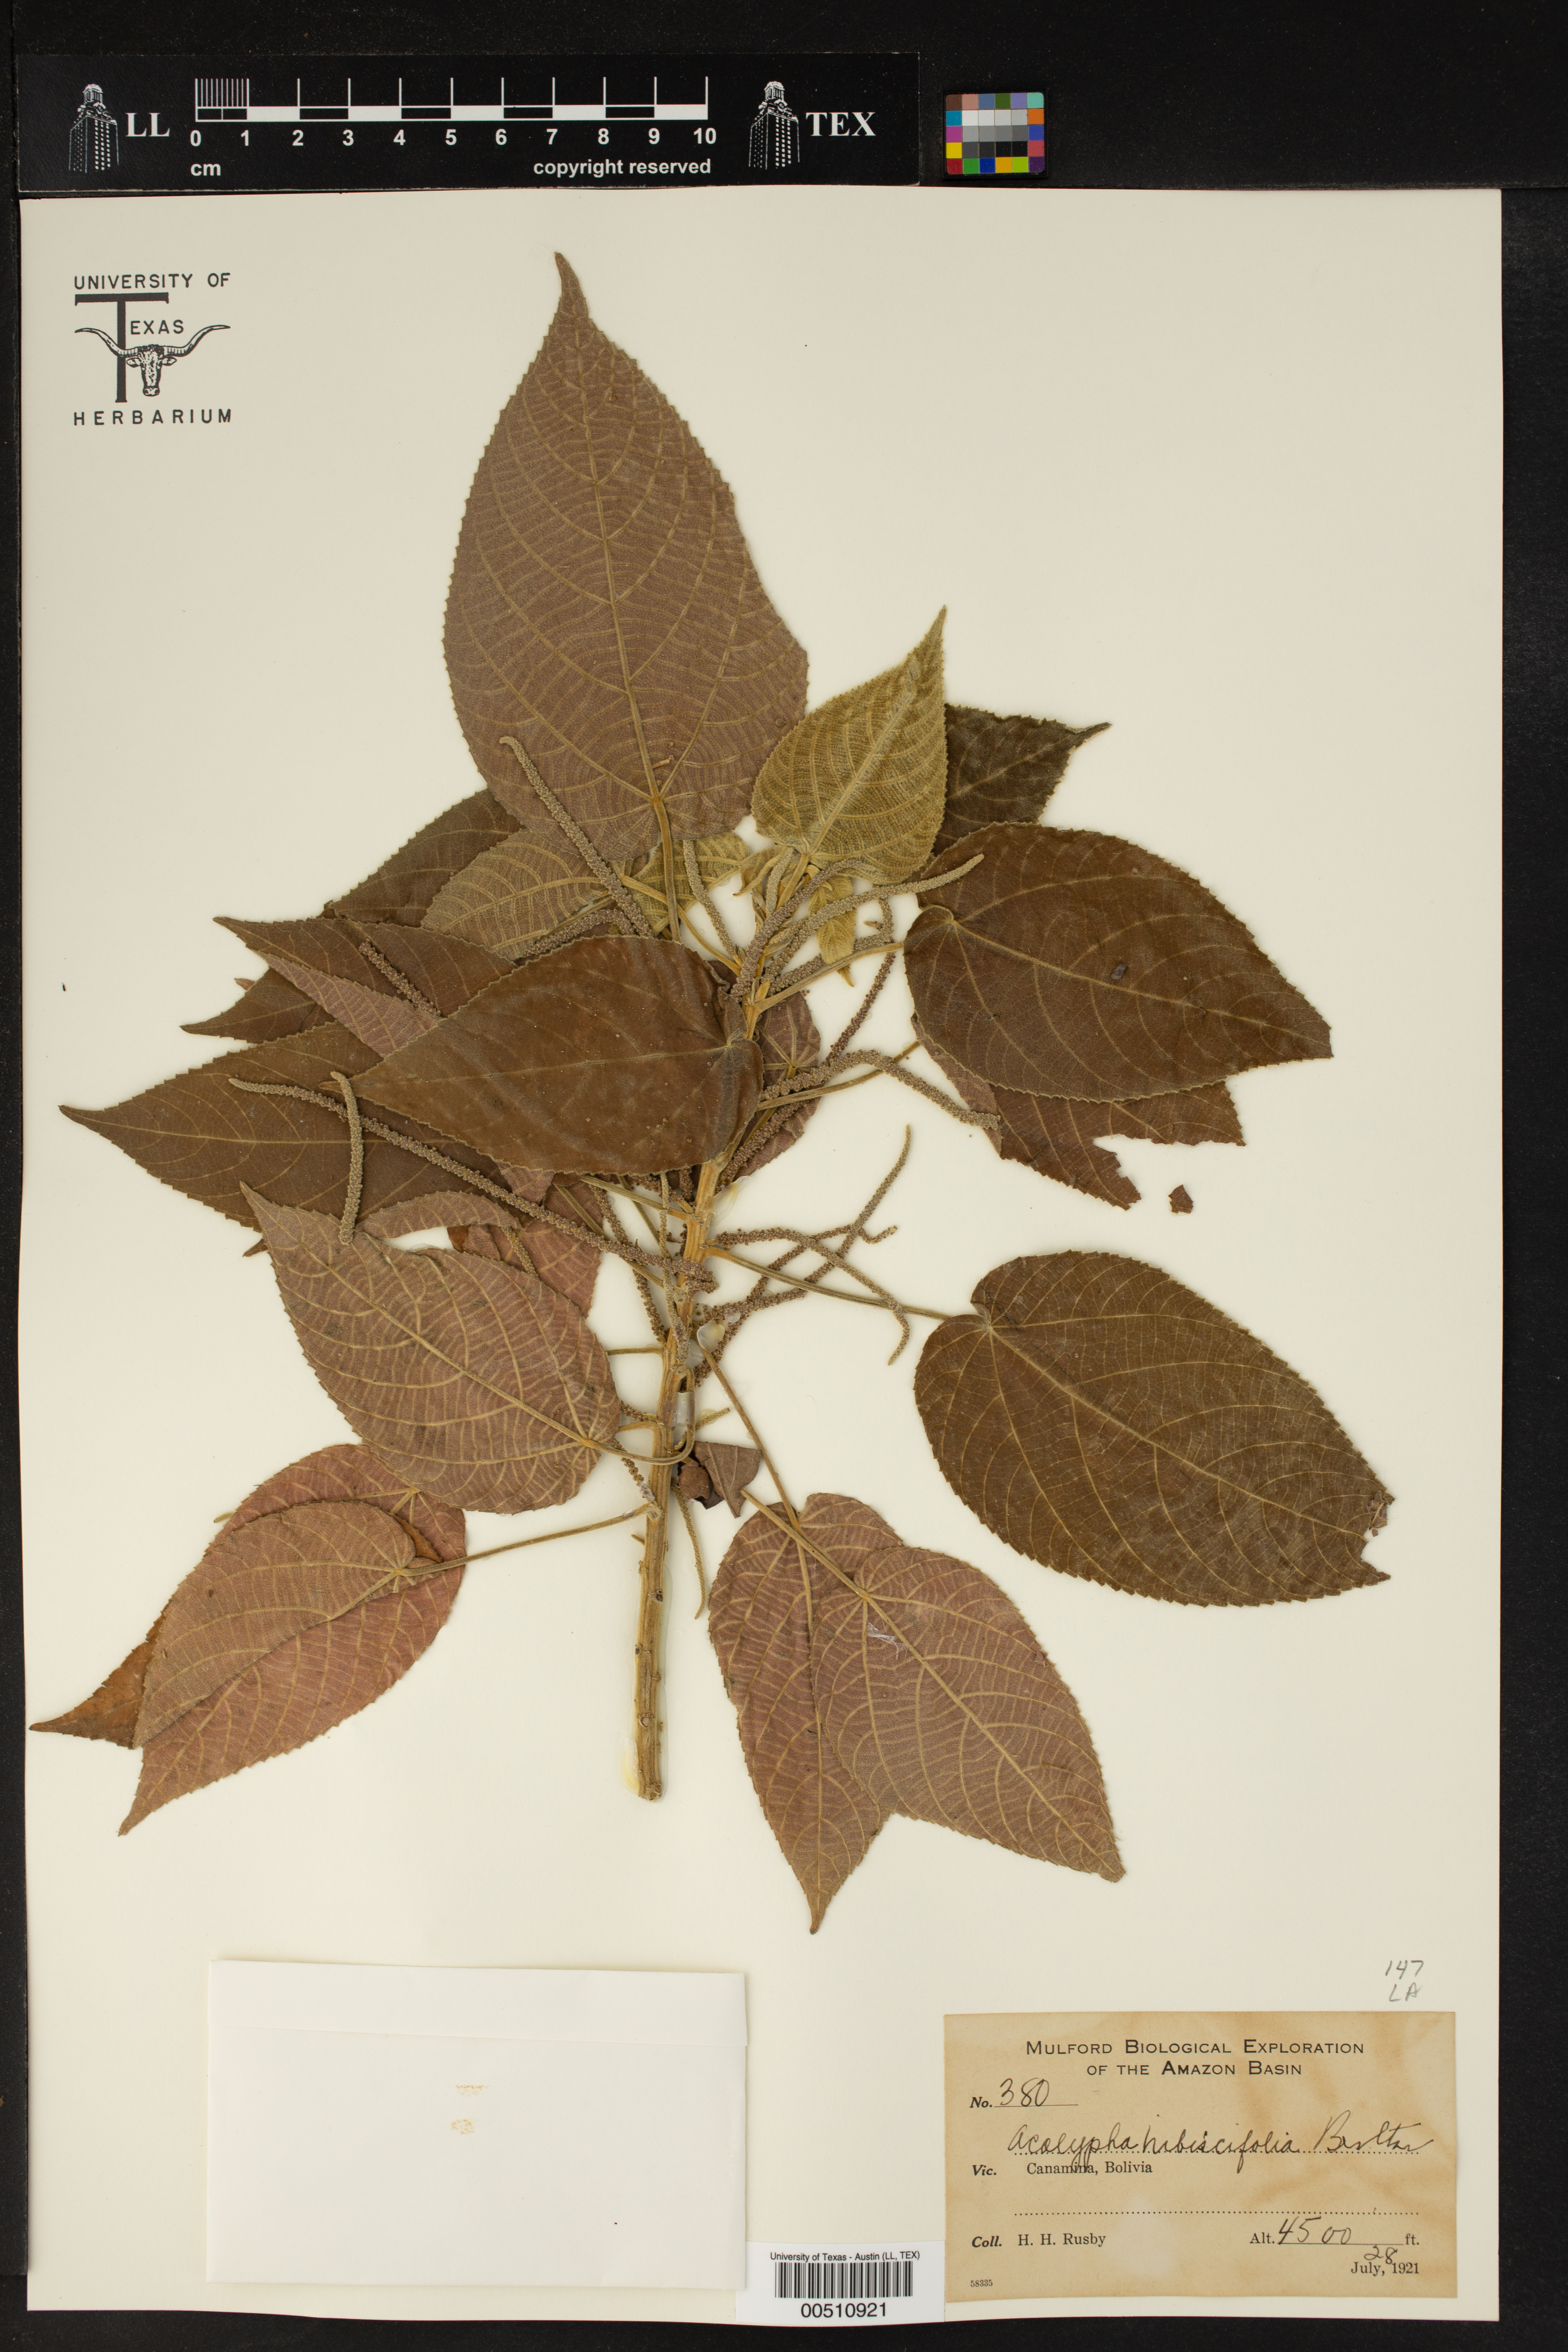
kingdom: Plantae
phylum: Tracheophyta
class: Magnoliopsida
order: Malpighiales
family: Euphorbiaceae
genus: Acalypha
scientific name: Acalypha hibiscifolia
